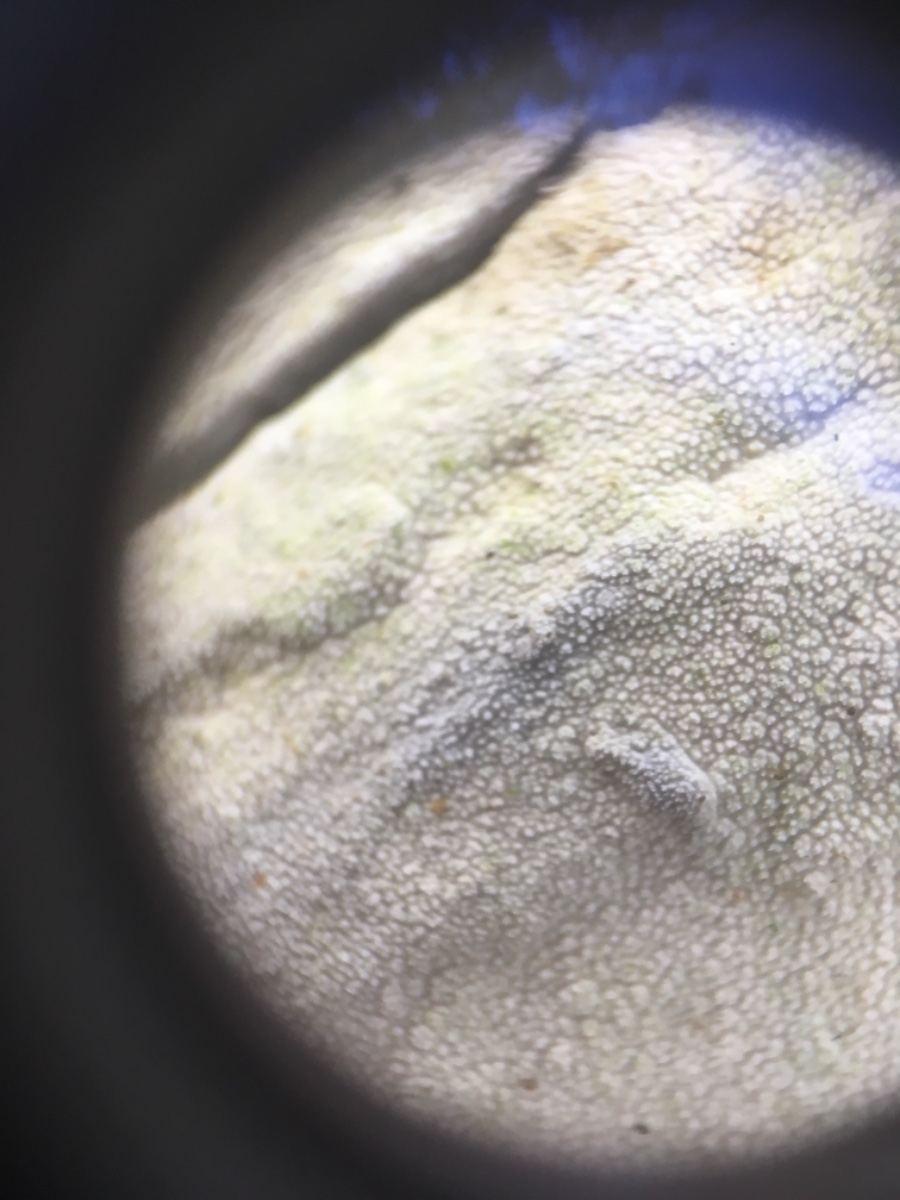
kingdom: Fungi
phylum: Basidiomycota
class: Agaricomycetes
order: Corticiales
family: Corticiaceae
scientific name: Corticiaceae
